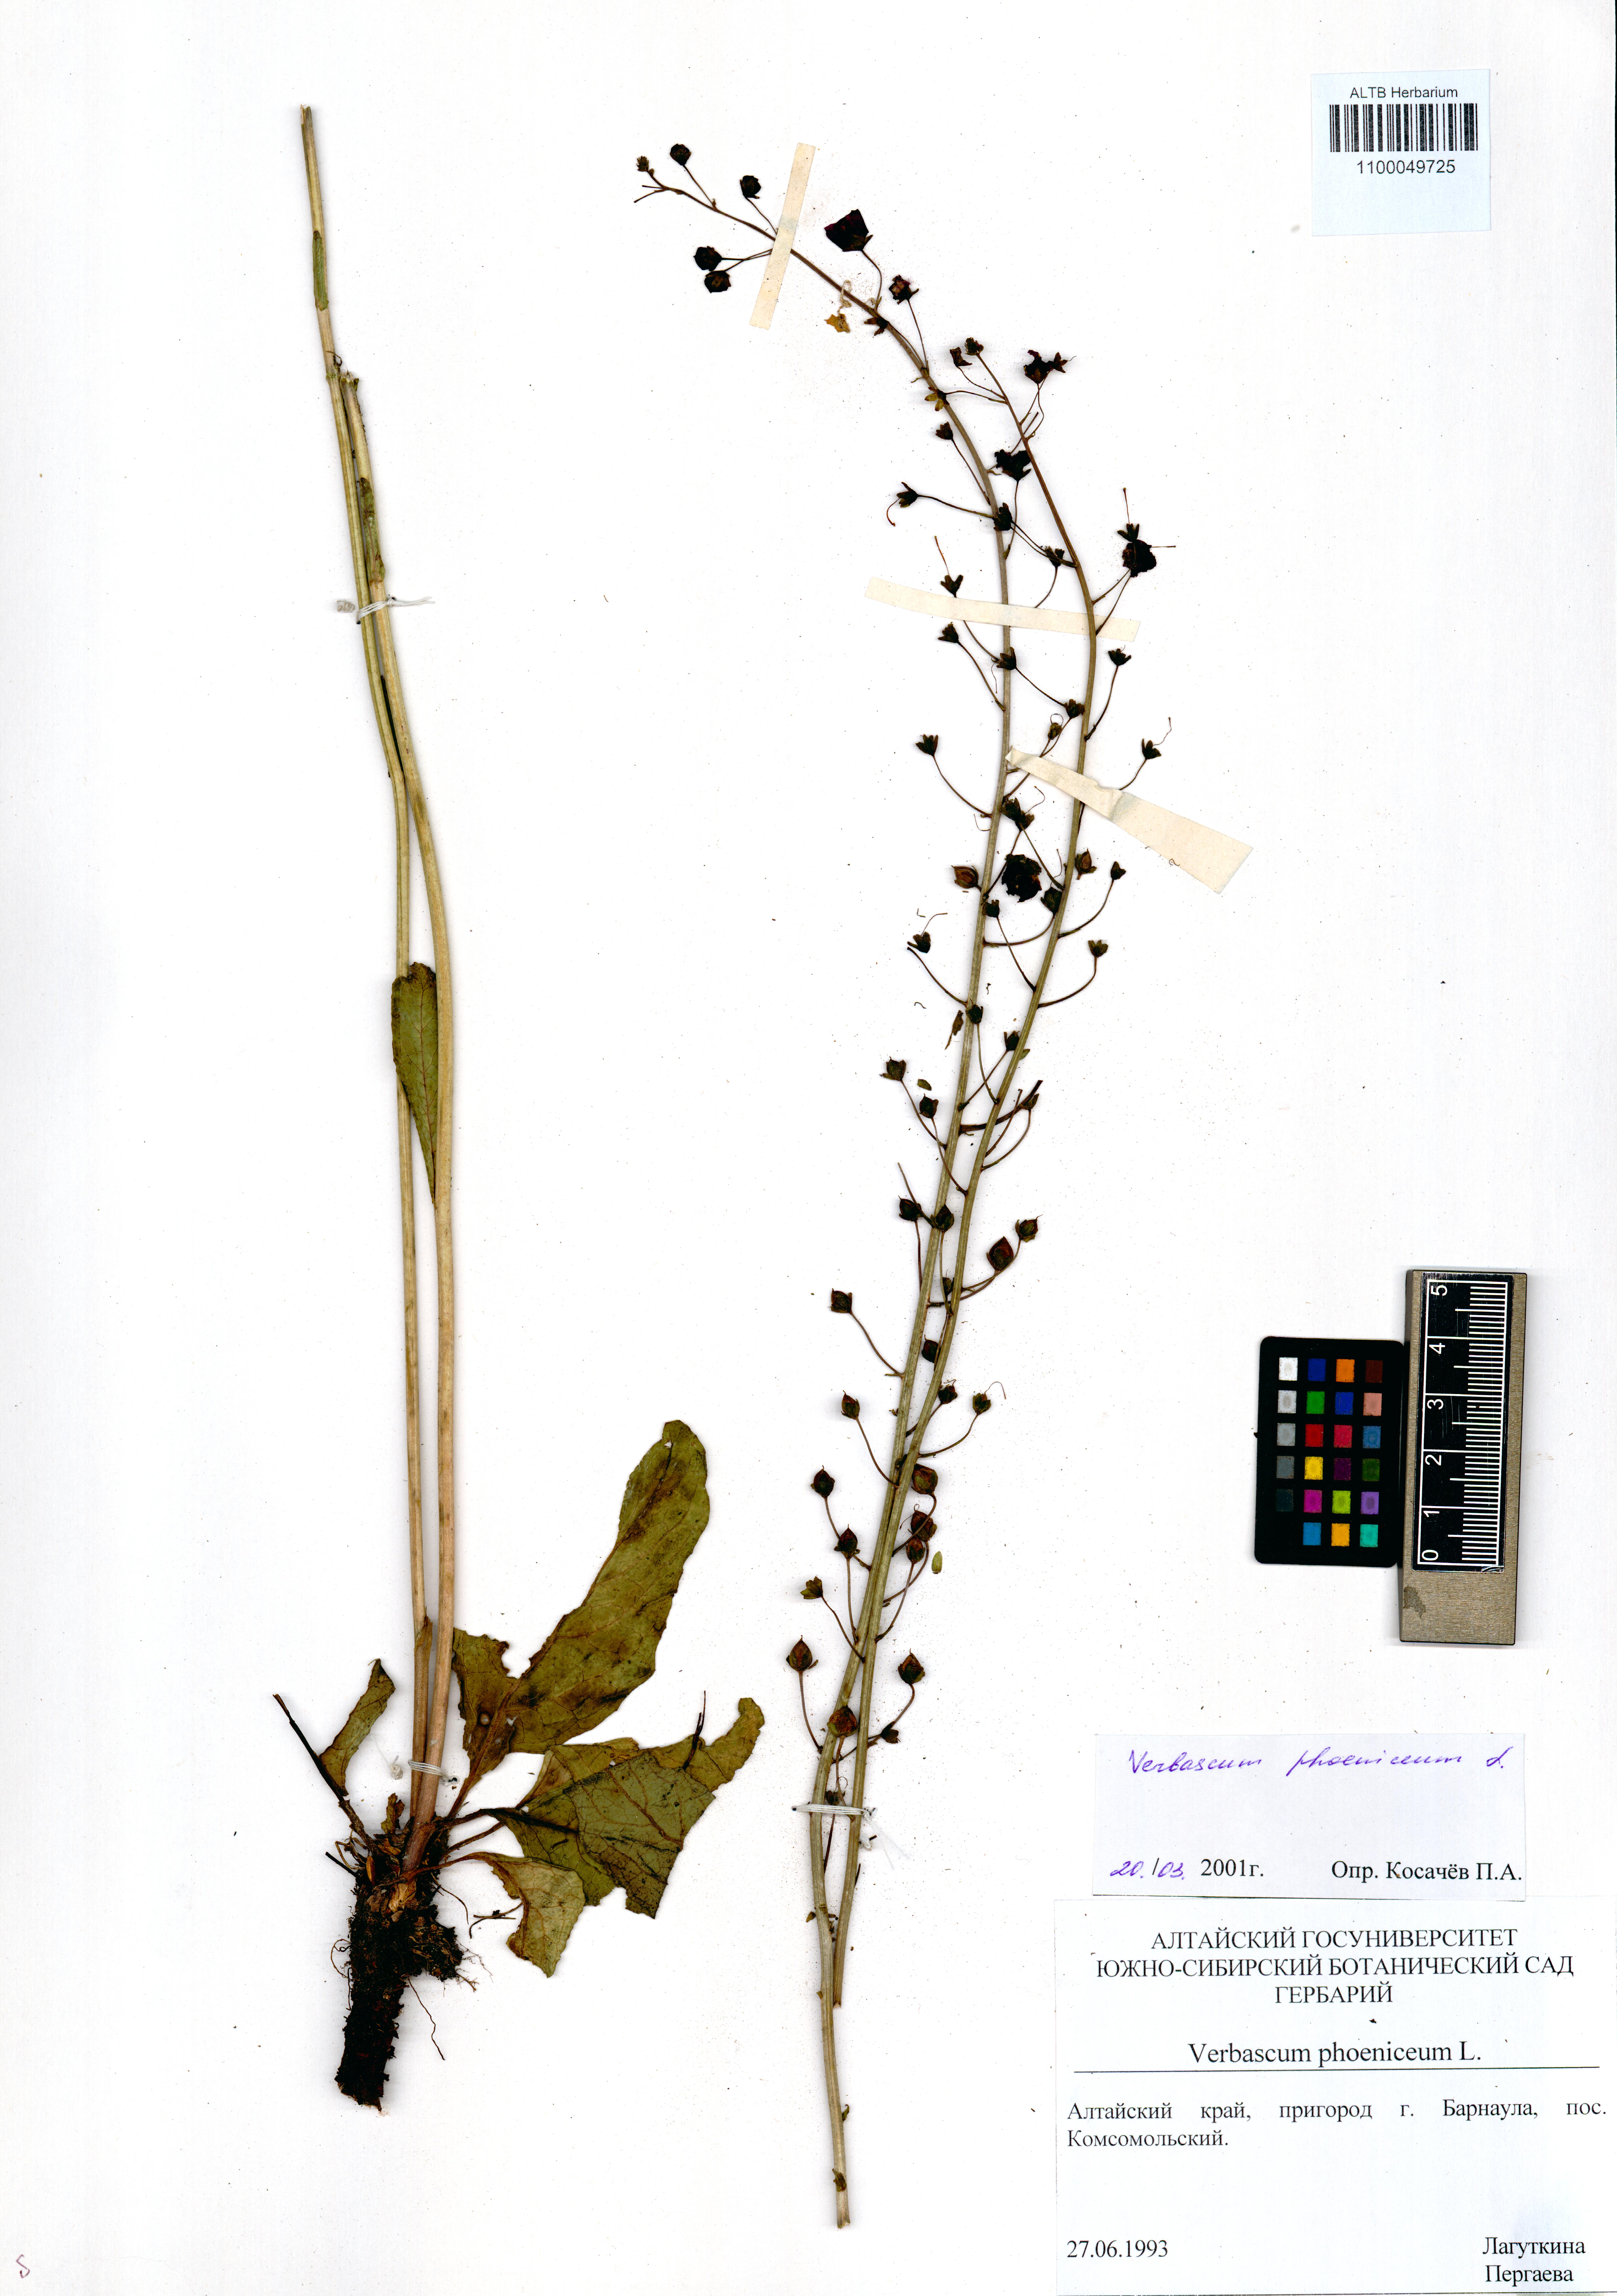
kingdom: Plantae
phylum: Tracheophyta
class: Magnoliopsida
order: Lamiales
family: Scrophulariaceae
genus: Verbascum
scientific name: Verbascum phoeniceum
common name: Purple mullein
